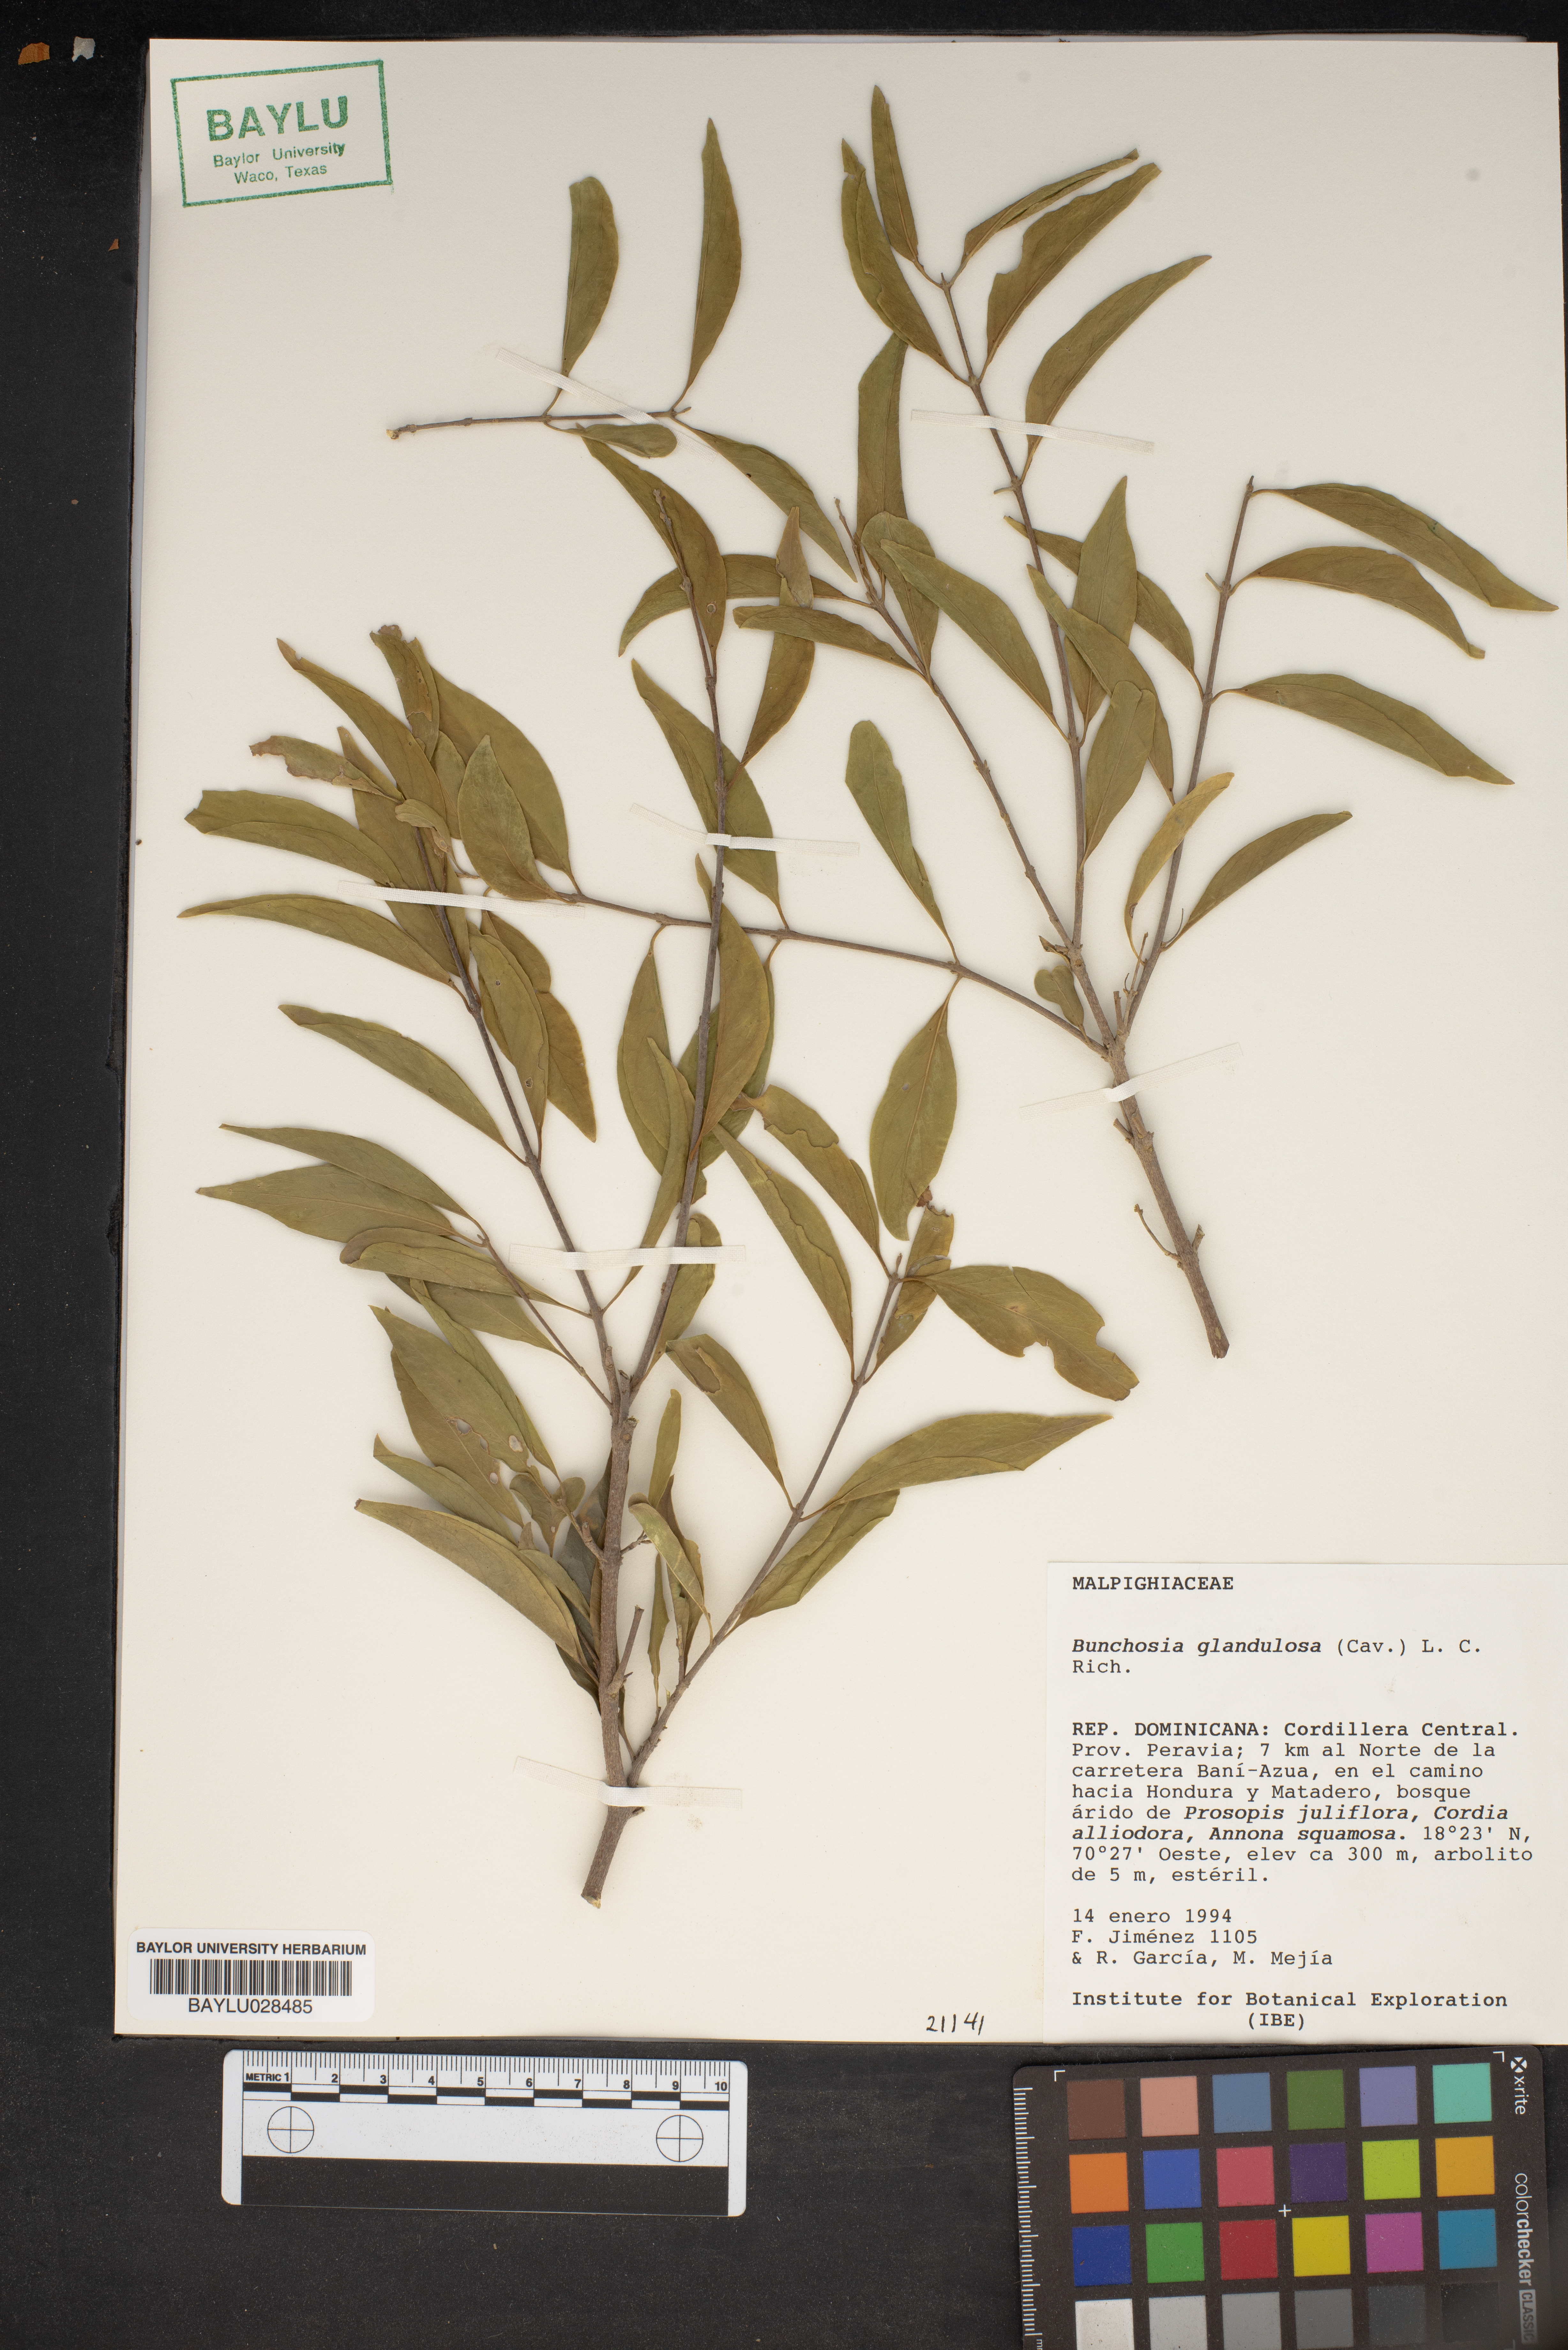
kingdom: Plantae
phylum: Tracheophyta
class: Magnoliopsida
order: Malpighiales
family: Malpighiaceae
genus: Bunchosia
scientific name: Bunchosia glandulosa
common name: Cafe forastero
